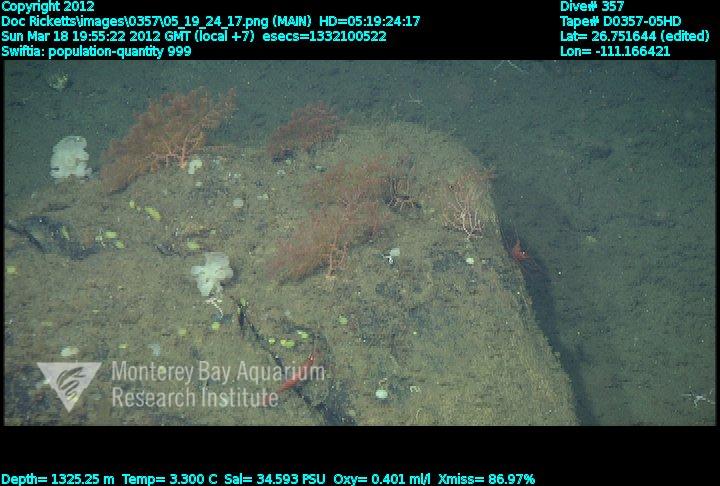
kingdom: Animalia
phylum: Cnidaria
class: Anthozoa
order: Malacalcyonacea
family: Plexauridae
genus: Swiftia
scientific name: Swiftia
